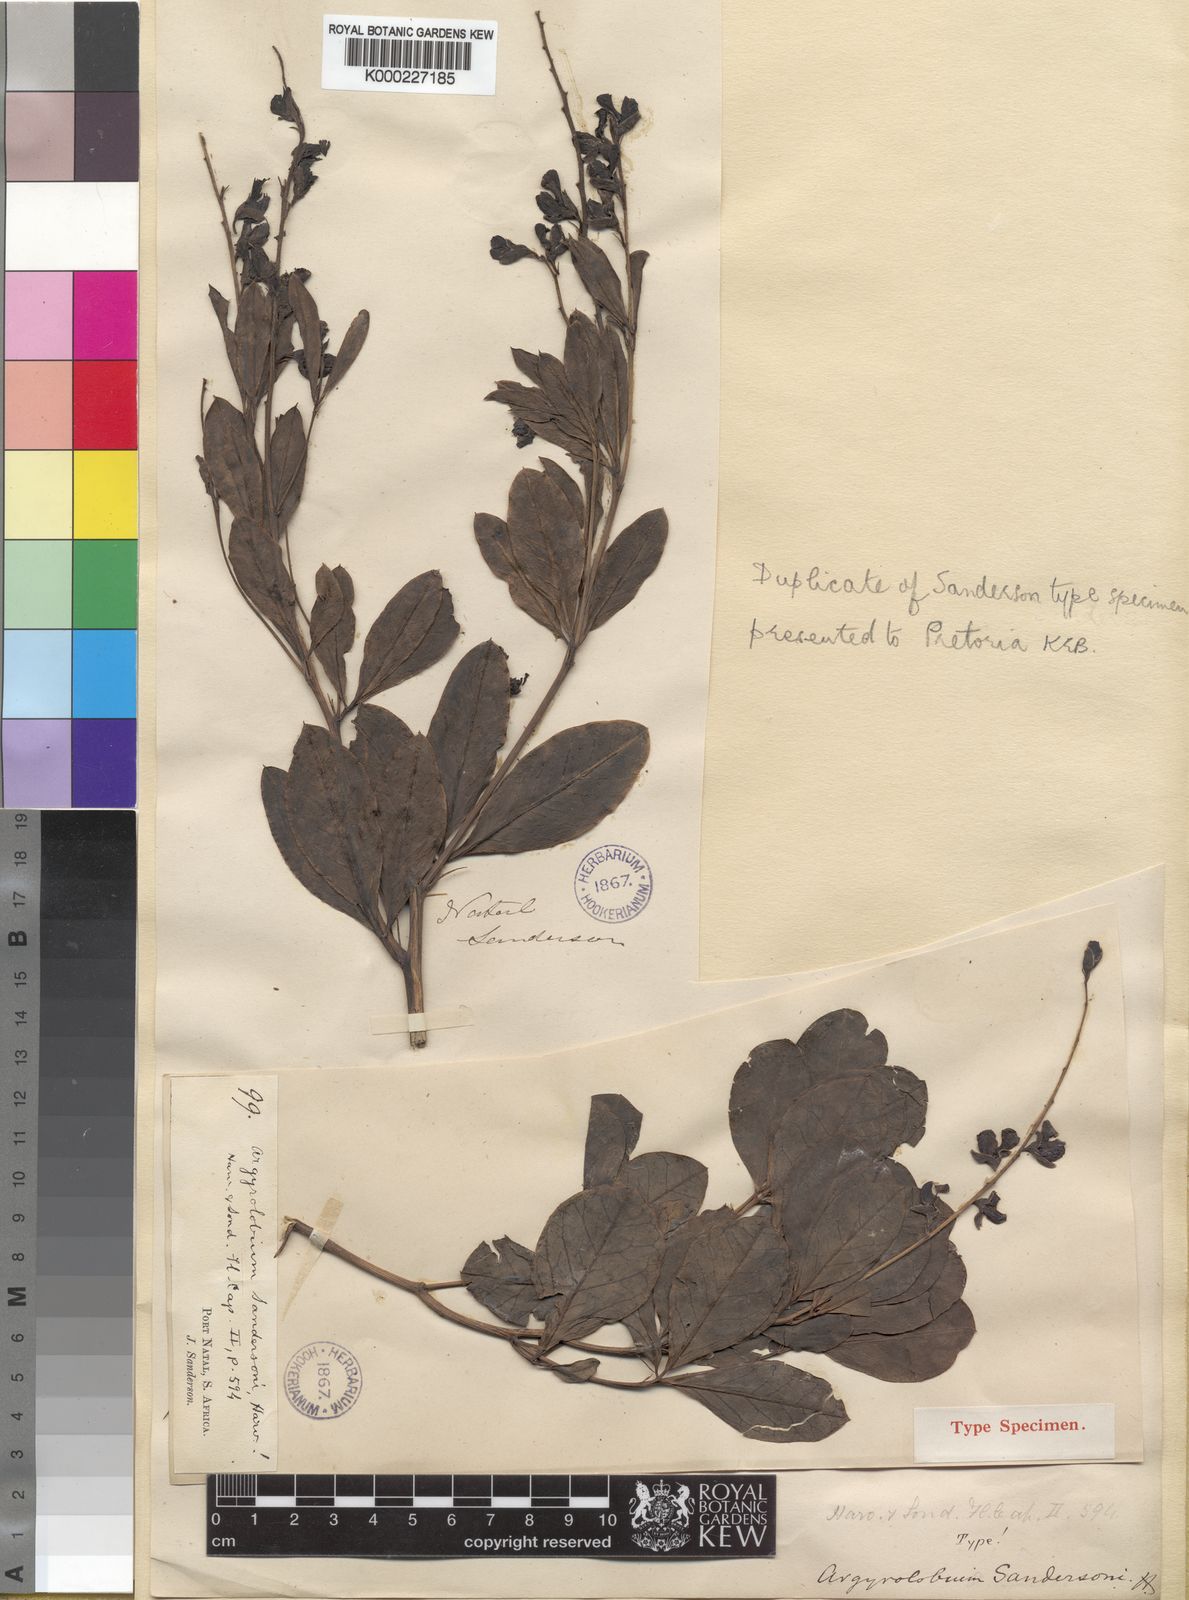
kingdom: Plantae
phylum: Tracheophyta
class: Magnoliopsida
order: Fabales
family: Fabaceae
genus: Argyrolobium
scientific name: Argyrolobium baptisioides
